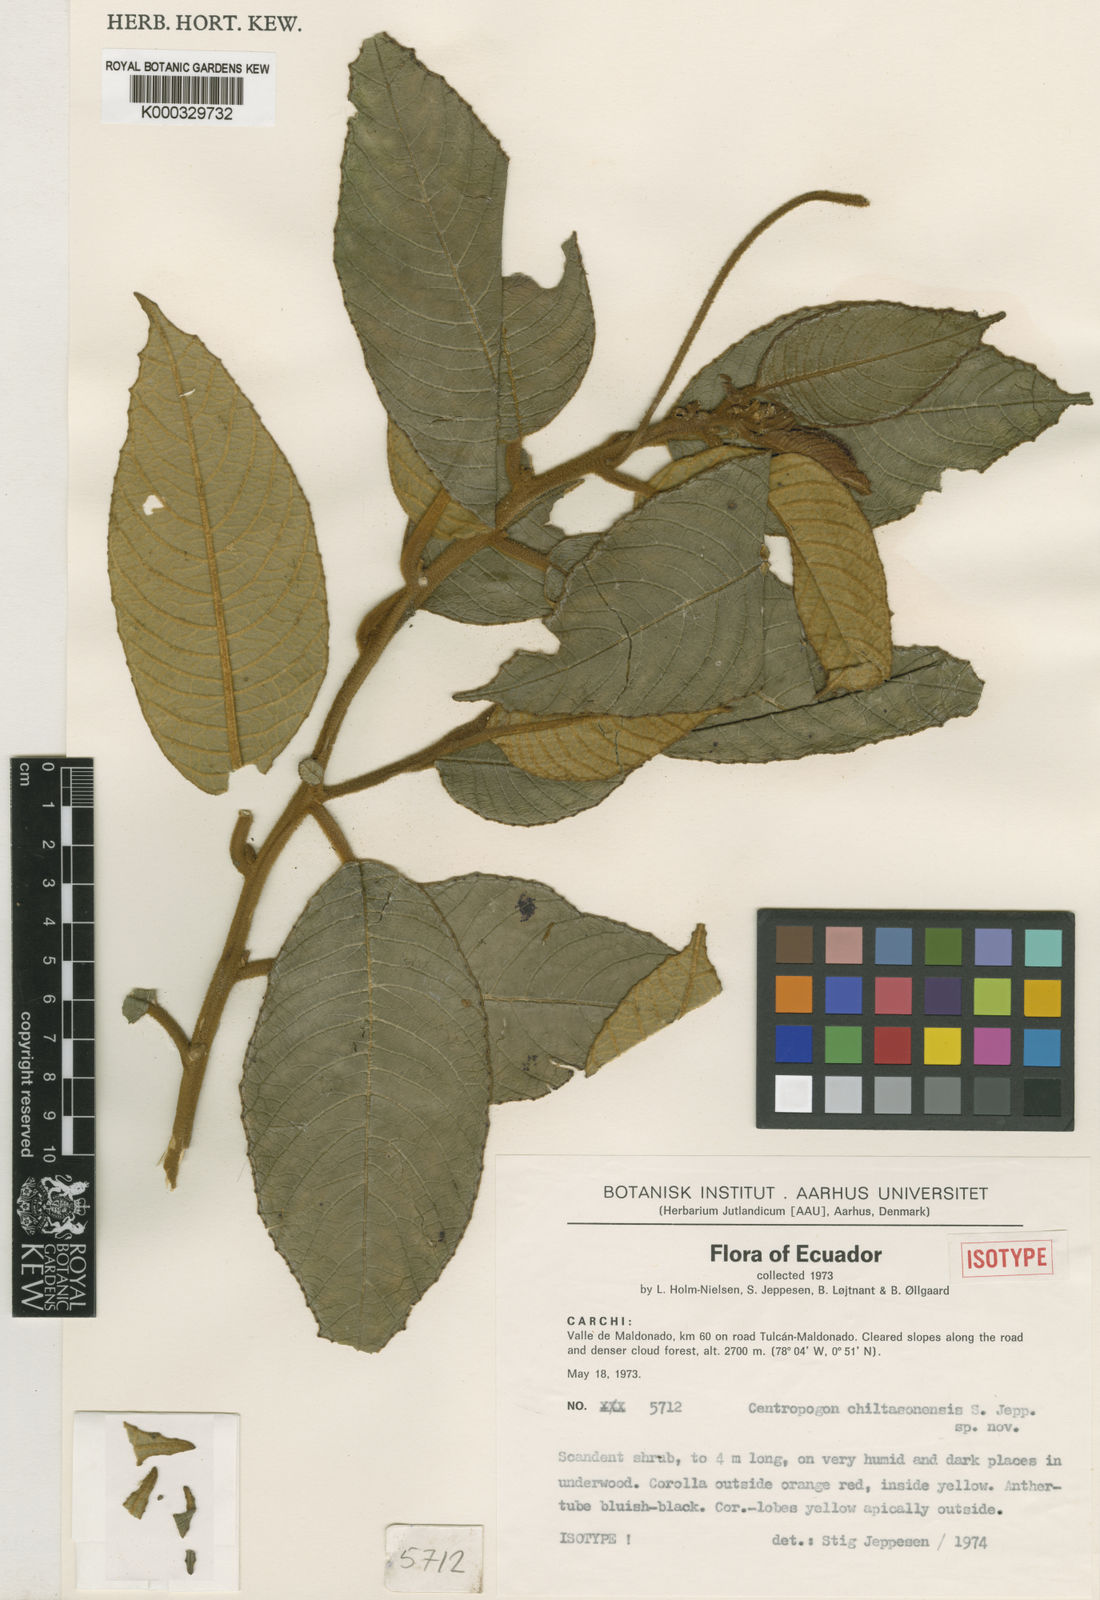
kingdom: Plantae
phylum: Tracheophyta
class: Magnoliopsida
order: Asterales
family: Campanulaceae
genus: Centropogon
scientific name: Centropogon chiltasonensis
